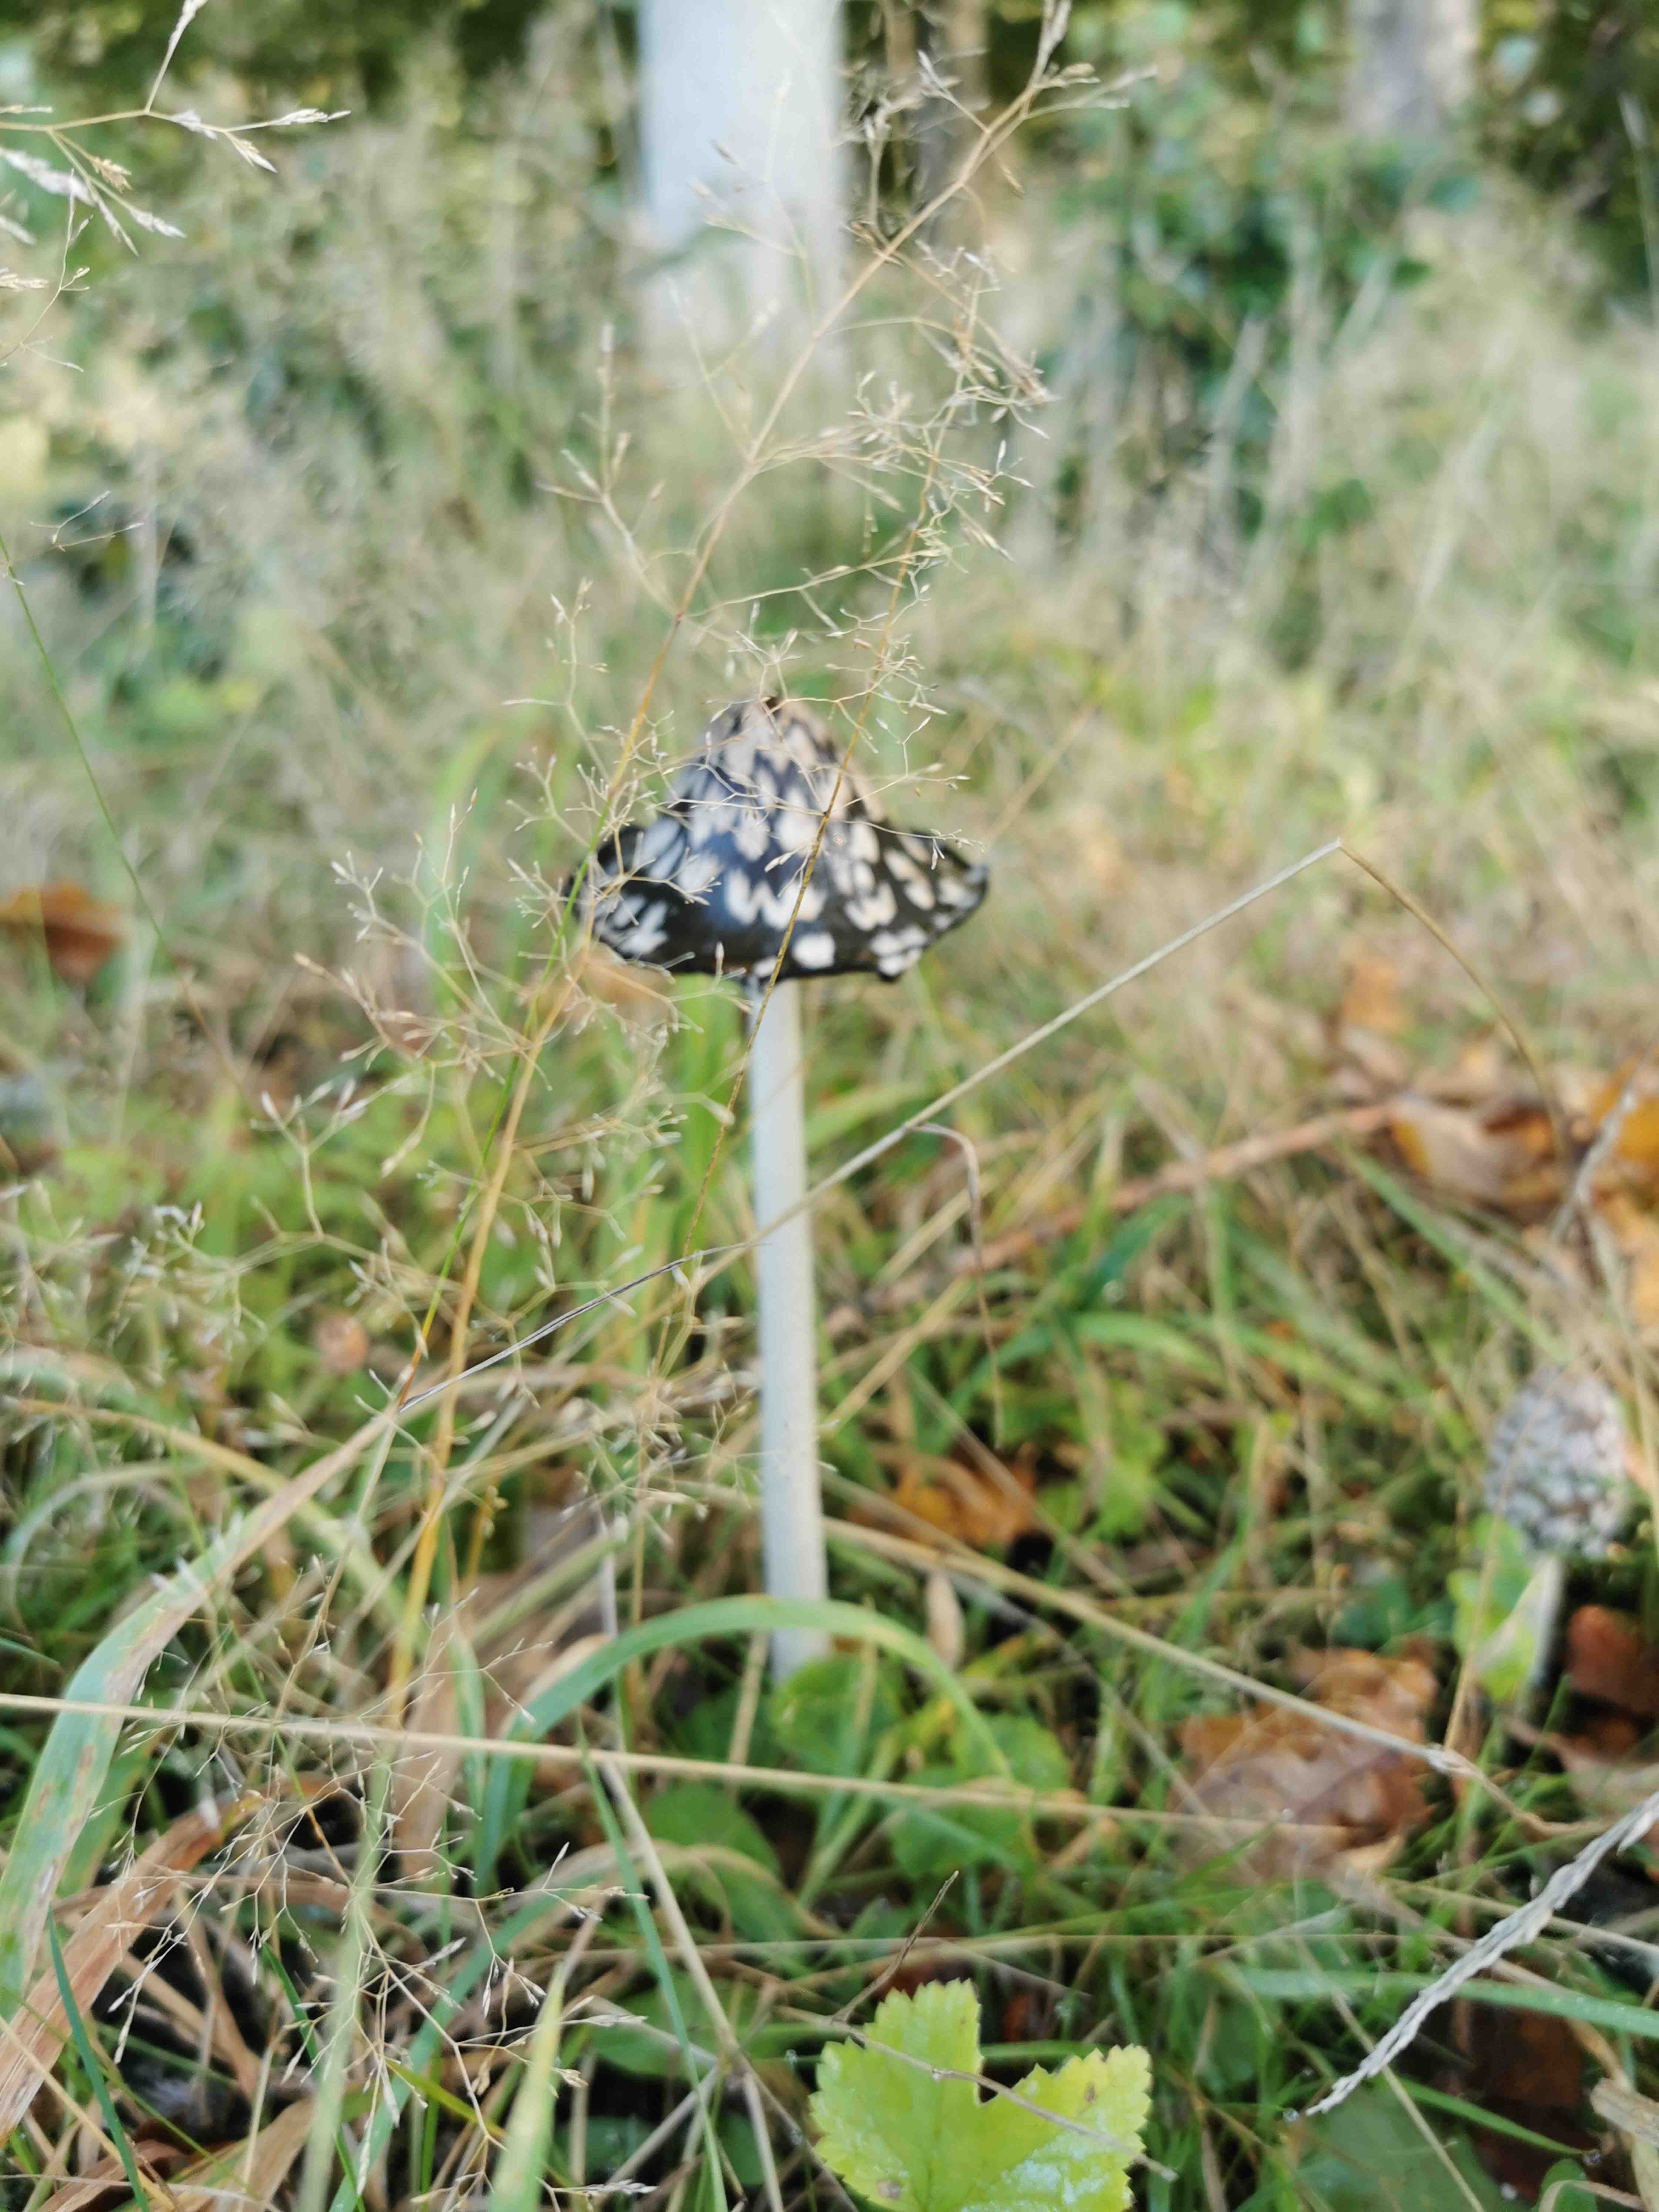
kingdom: Fungi
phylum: Basidiomycota
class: Agaricomycetes
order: Agaricales
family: Psathyrellaceae
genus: Coprinopsis
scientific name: Coprinopsis picacea
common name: skade-blækhat
